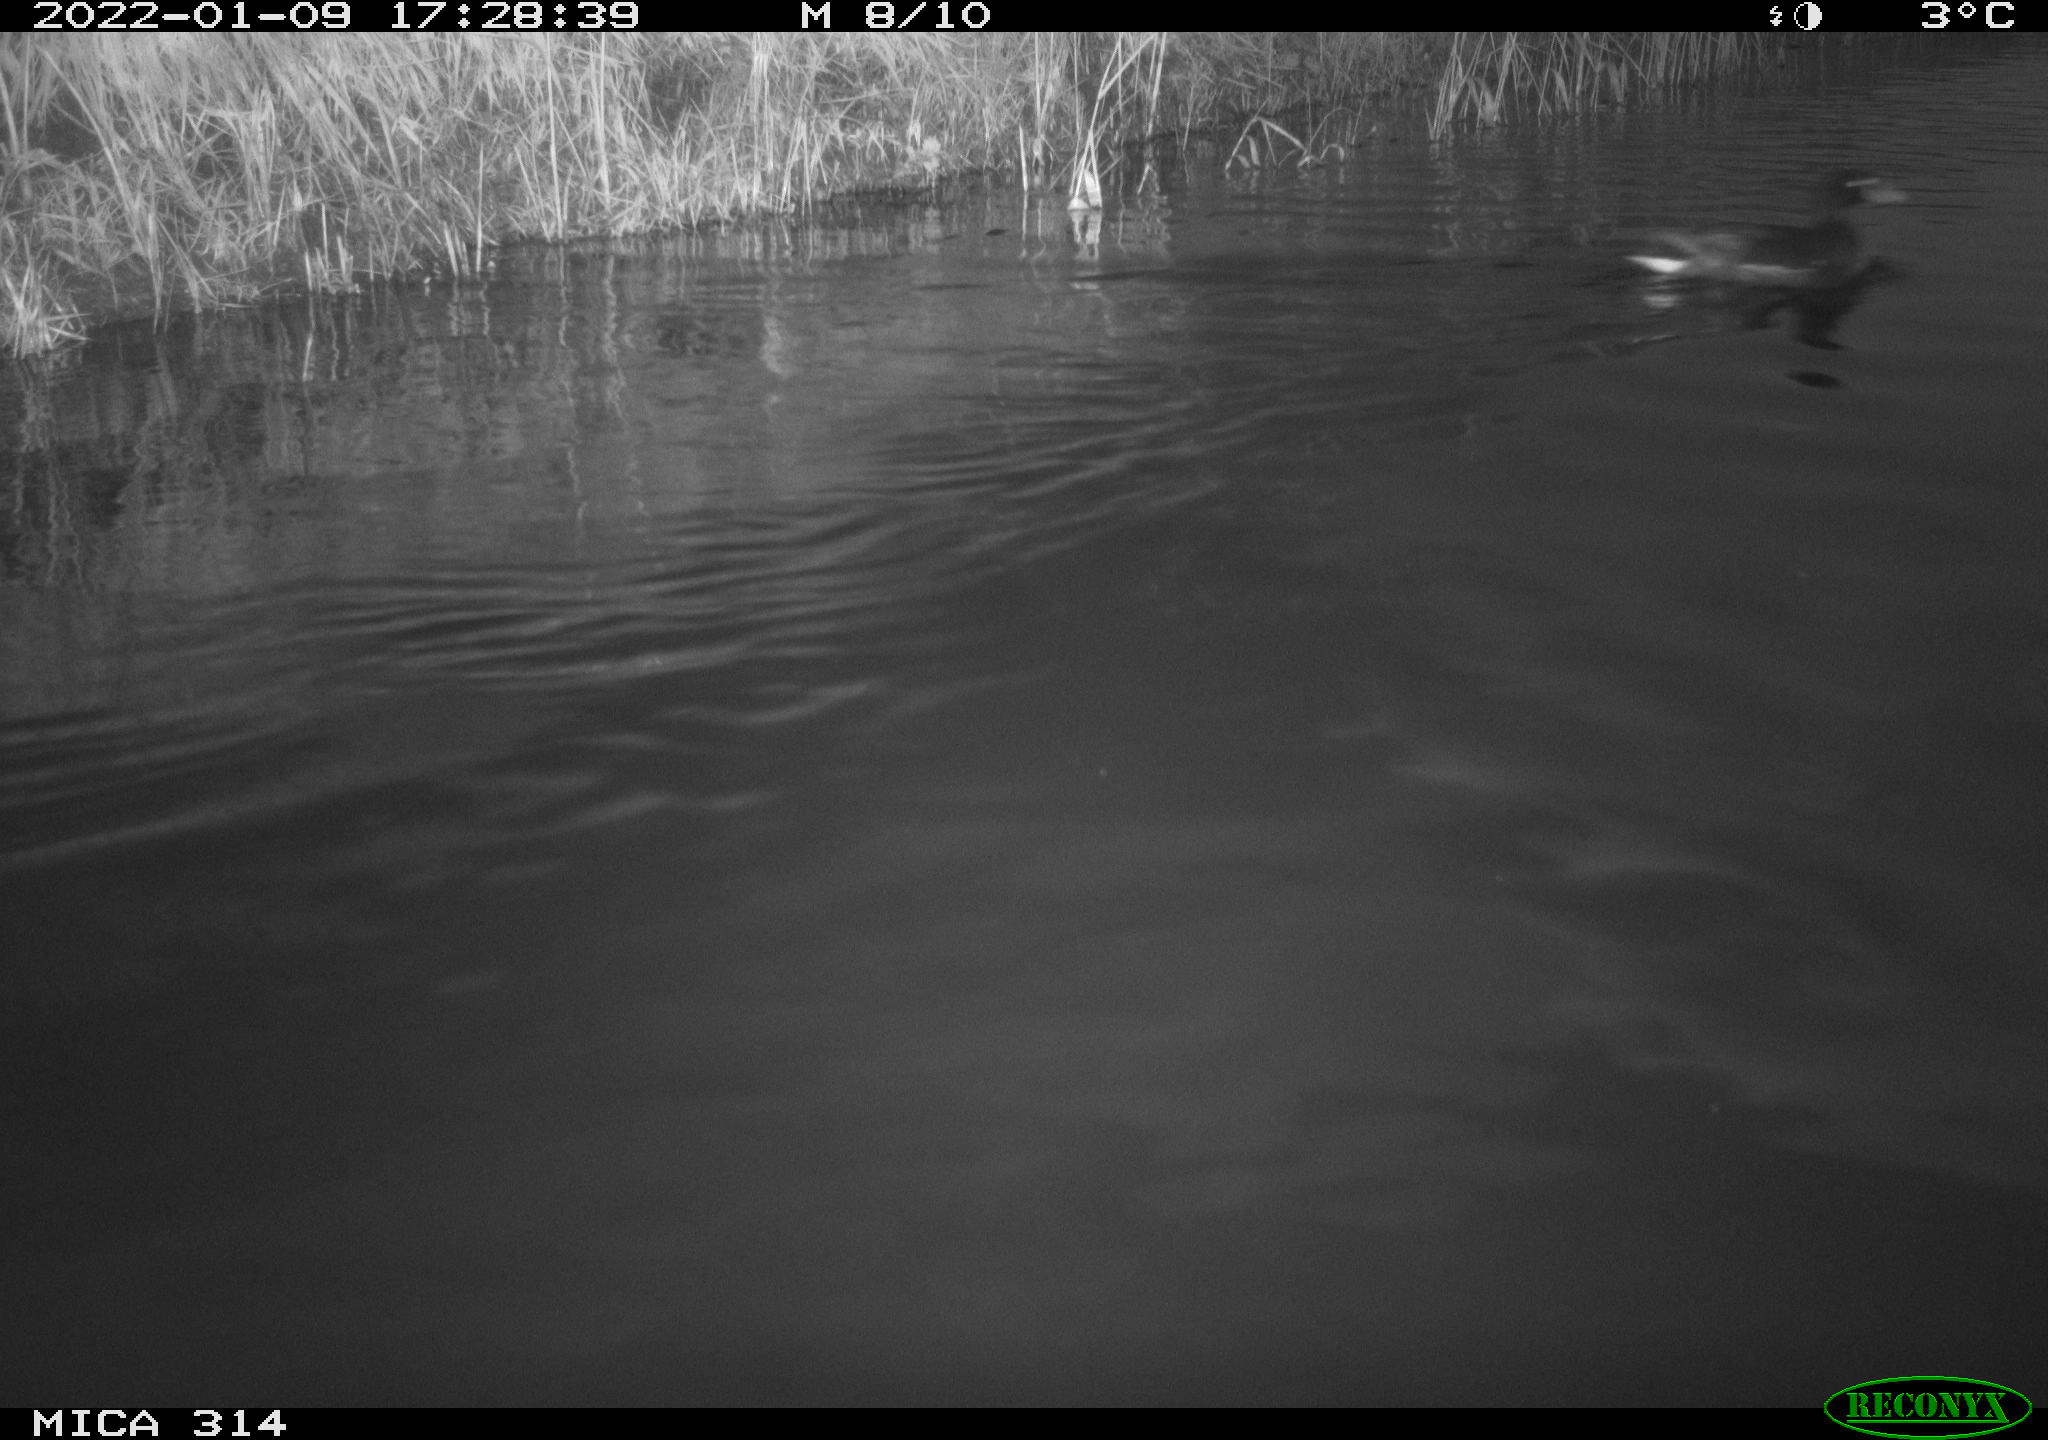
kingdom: Animalia
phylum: Chordata
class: Aves
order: Gruiformes
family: Rallidae
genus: Gallinula
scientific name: Gallinula chloropus
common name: Common moorhen
